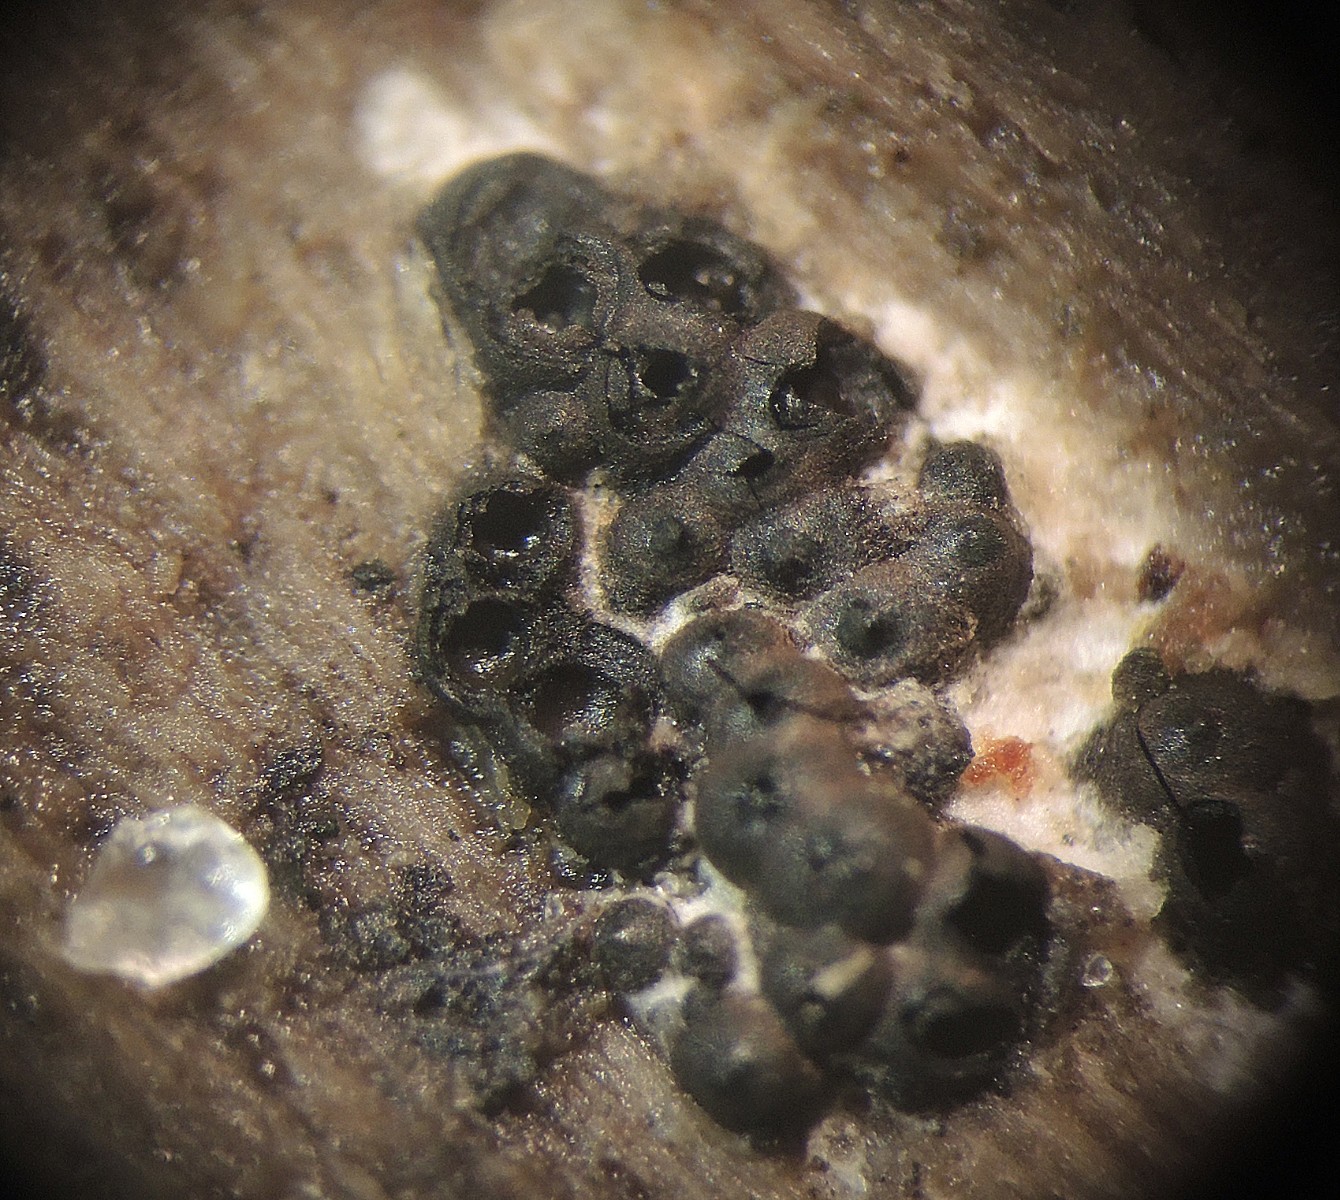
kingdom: Fungi
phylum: Ascomycota
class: Sordariomycetes
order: Xylariales
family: Xylariaceae
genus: Nemania
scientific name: Nemania maritima
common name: strand-kuldyne
